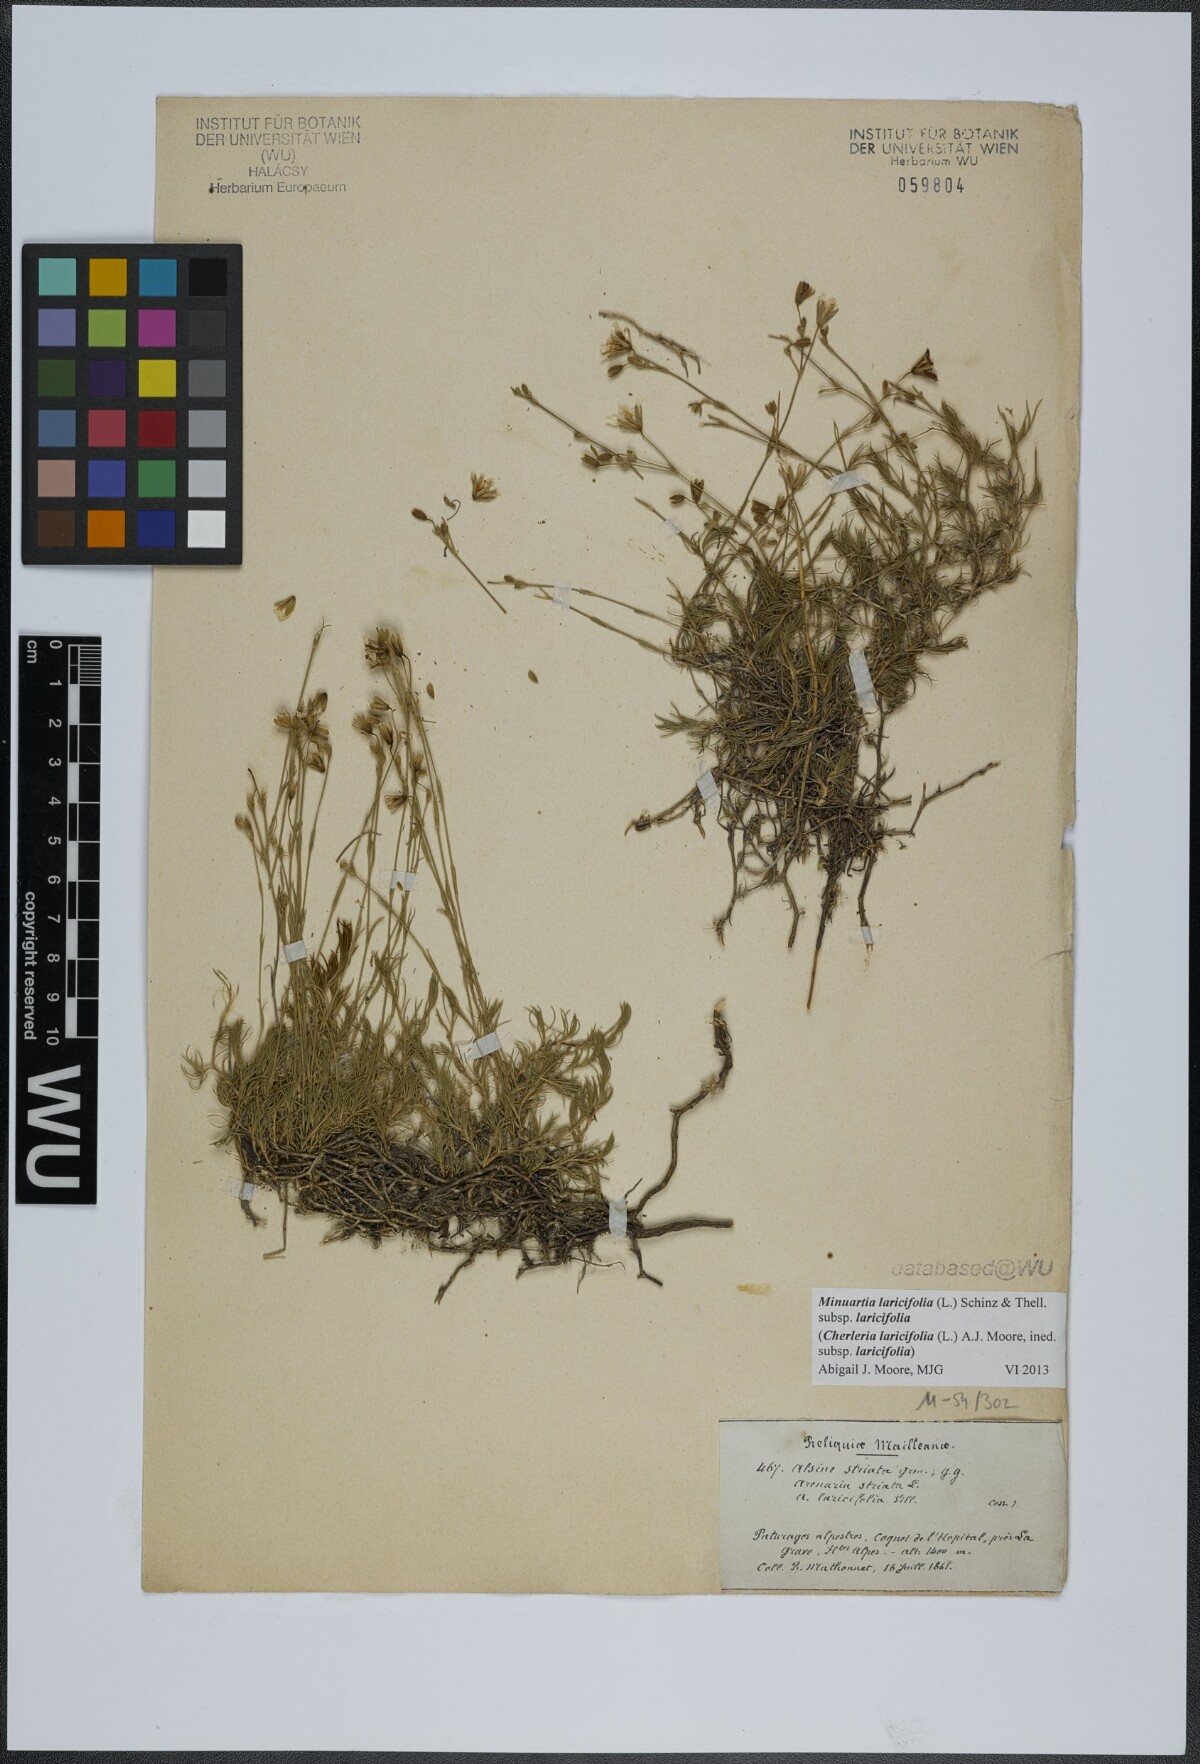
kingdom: Plantae
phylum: Tracheophyta
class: Magnoliopsida
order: Caryophyllales
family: Caryophyllaceae
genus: Cherleria
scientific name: Cherleria laricifolia
